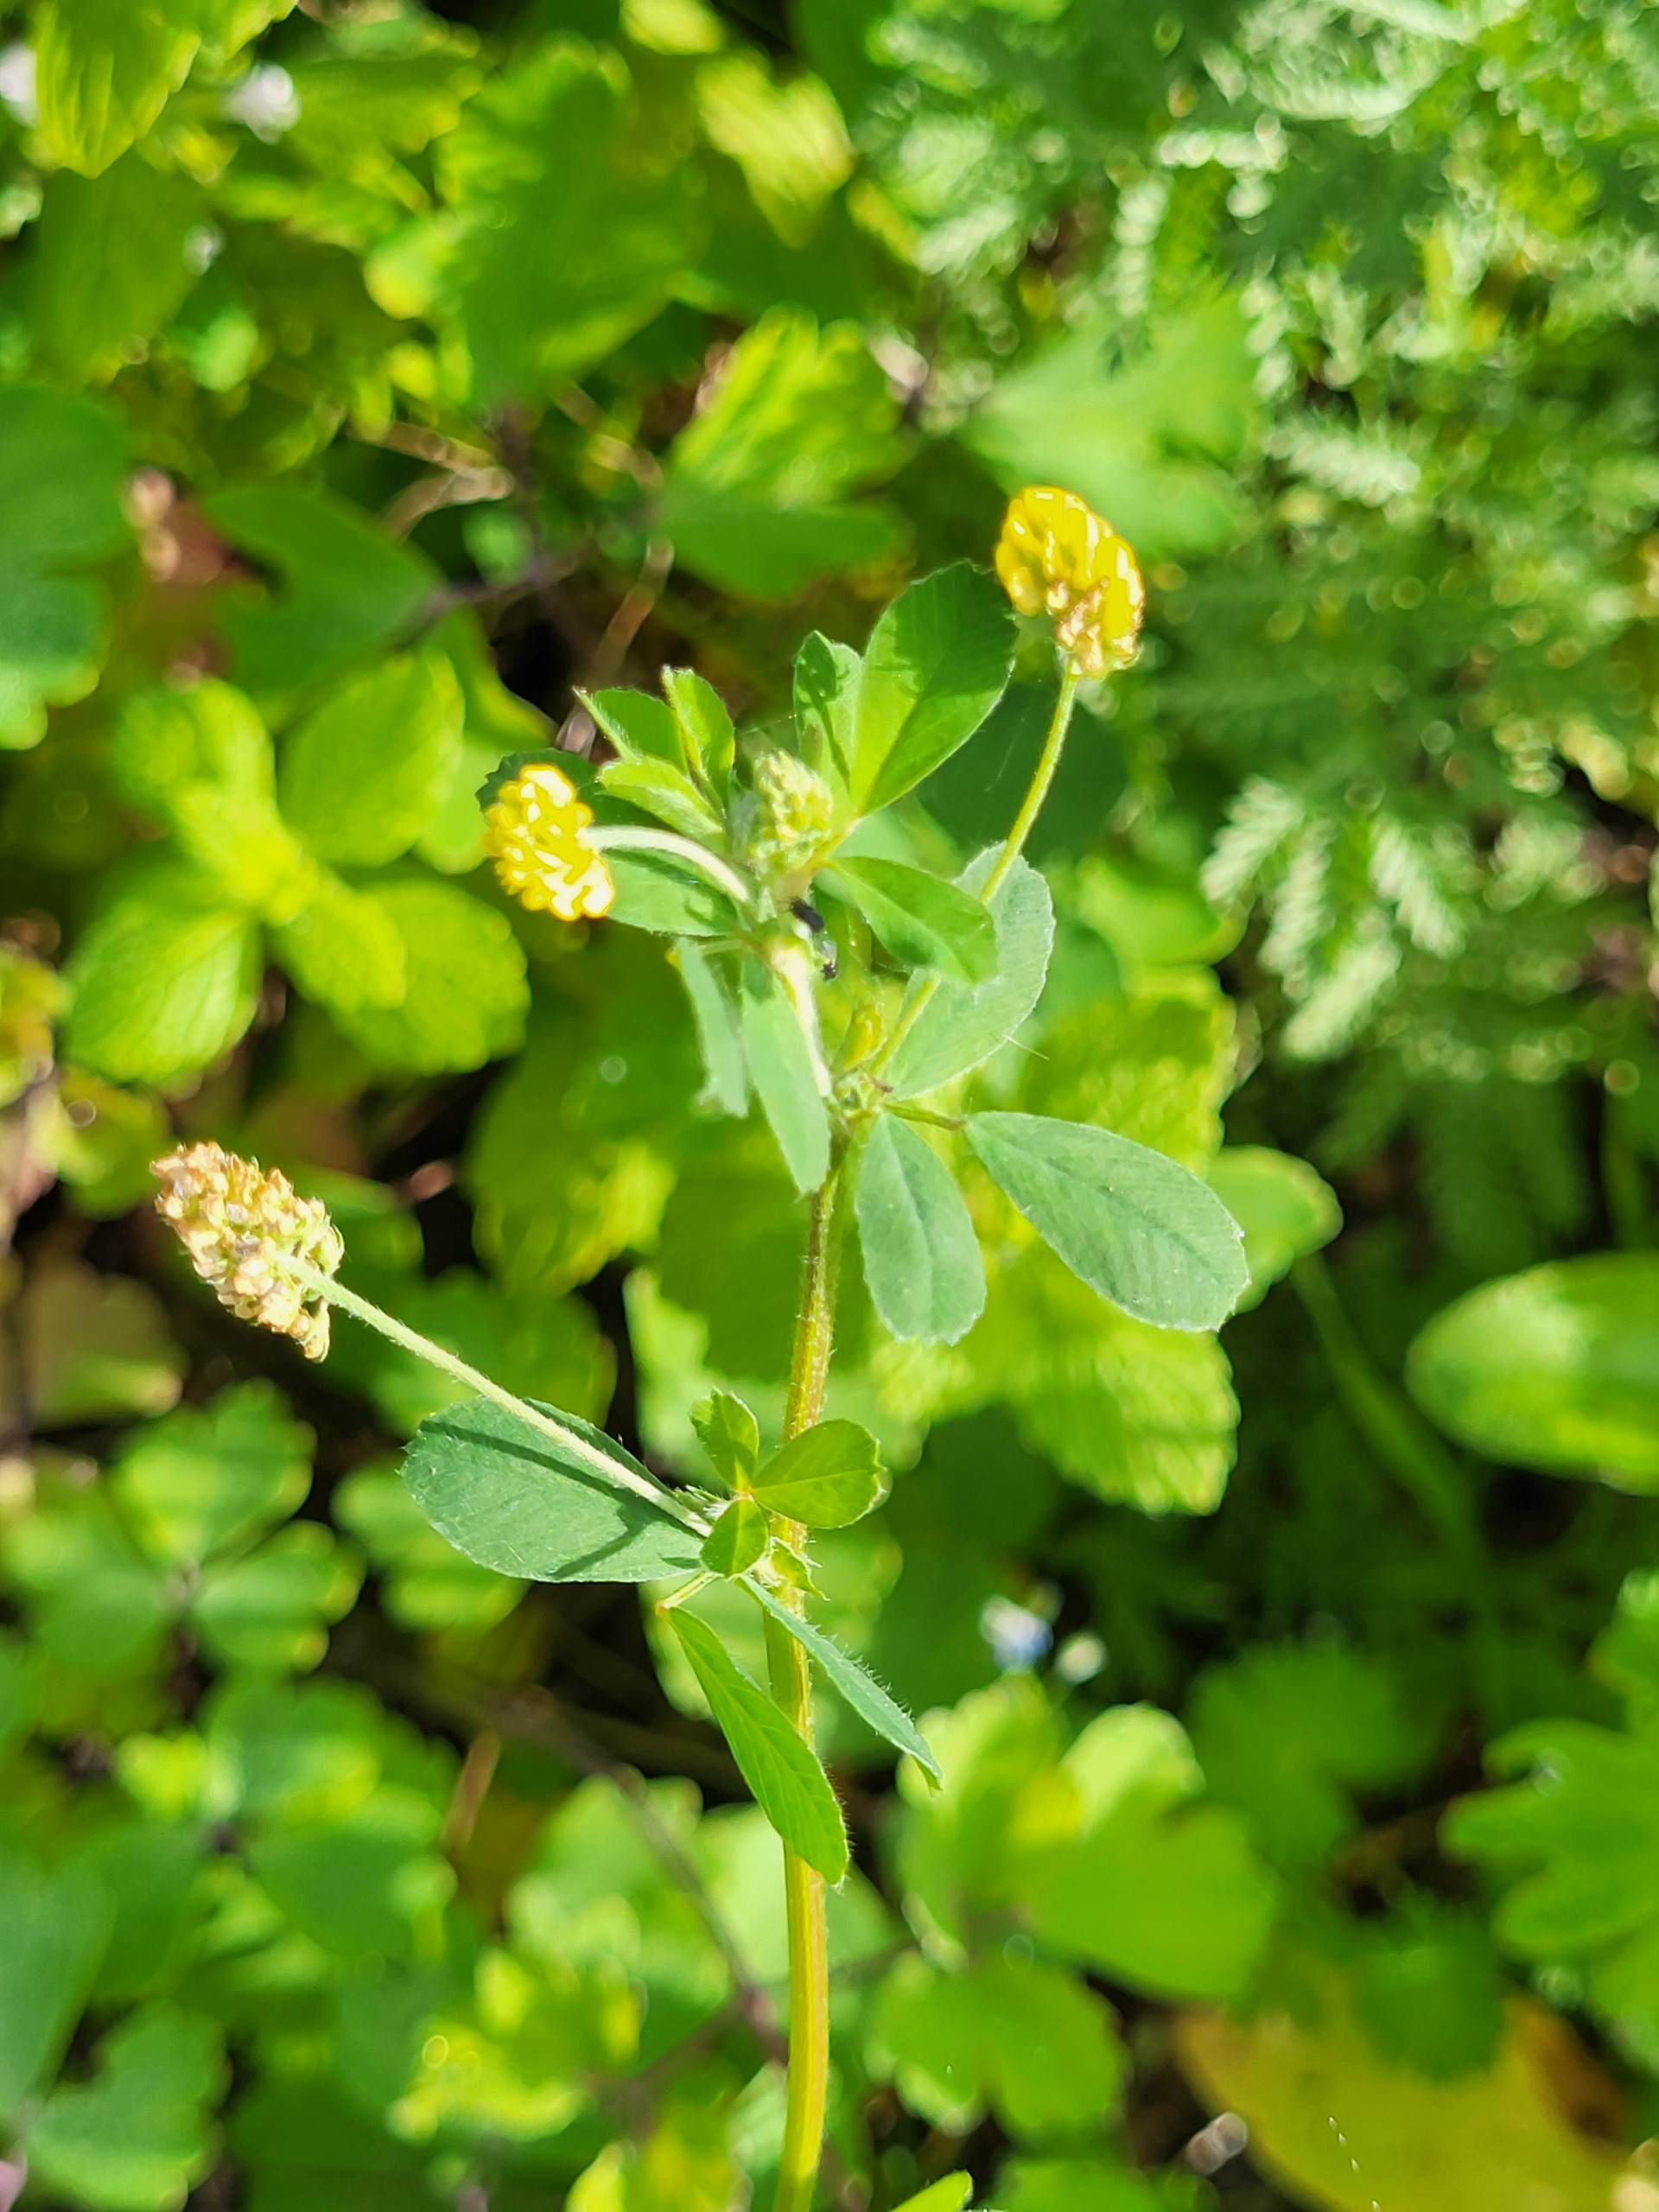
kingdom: Plantae
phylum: Tracheophyta
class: Magnoliopsida
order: Fabales
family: Fabaceae
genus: Medicago
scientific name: Medicago lupulina
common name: Humle-sneglebælg
